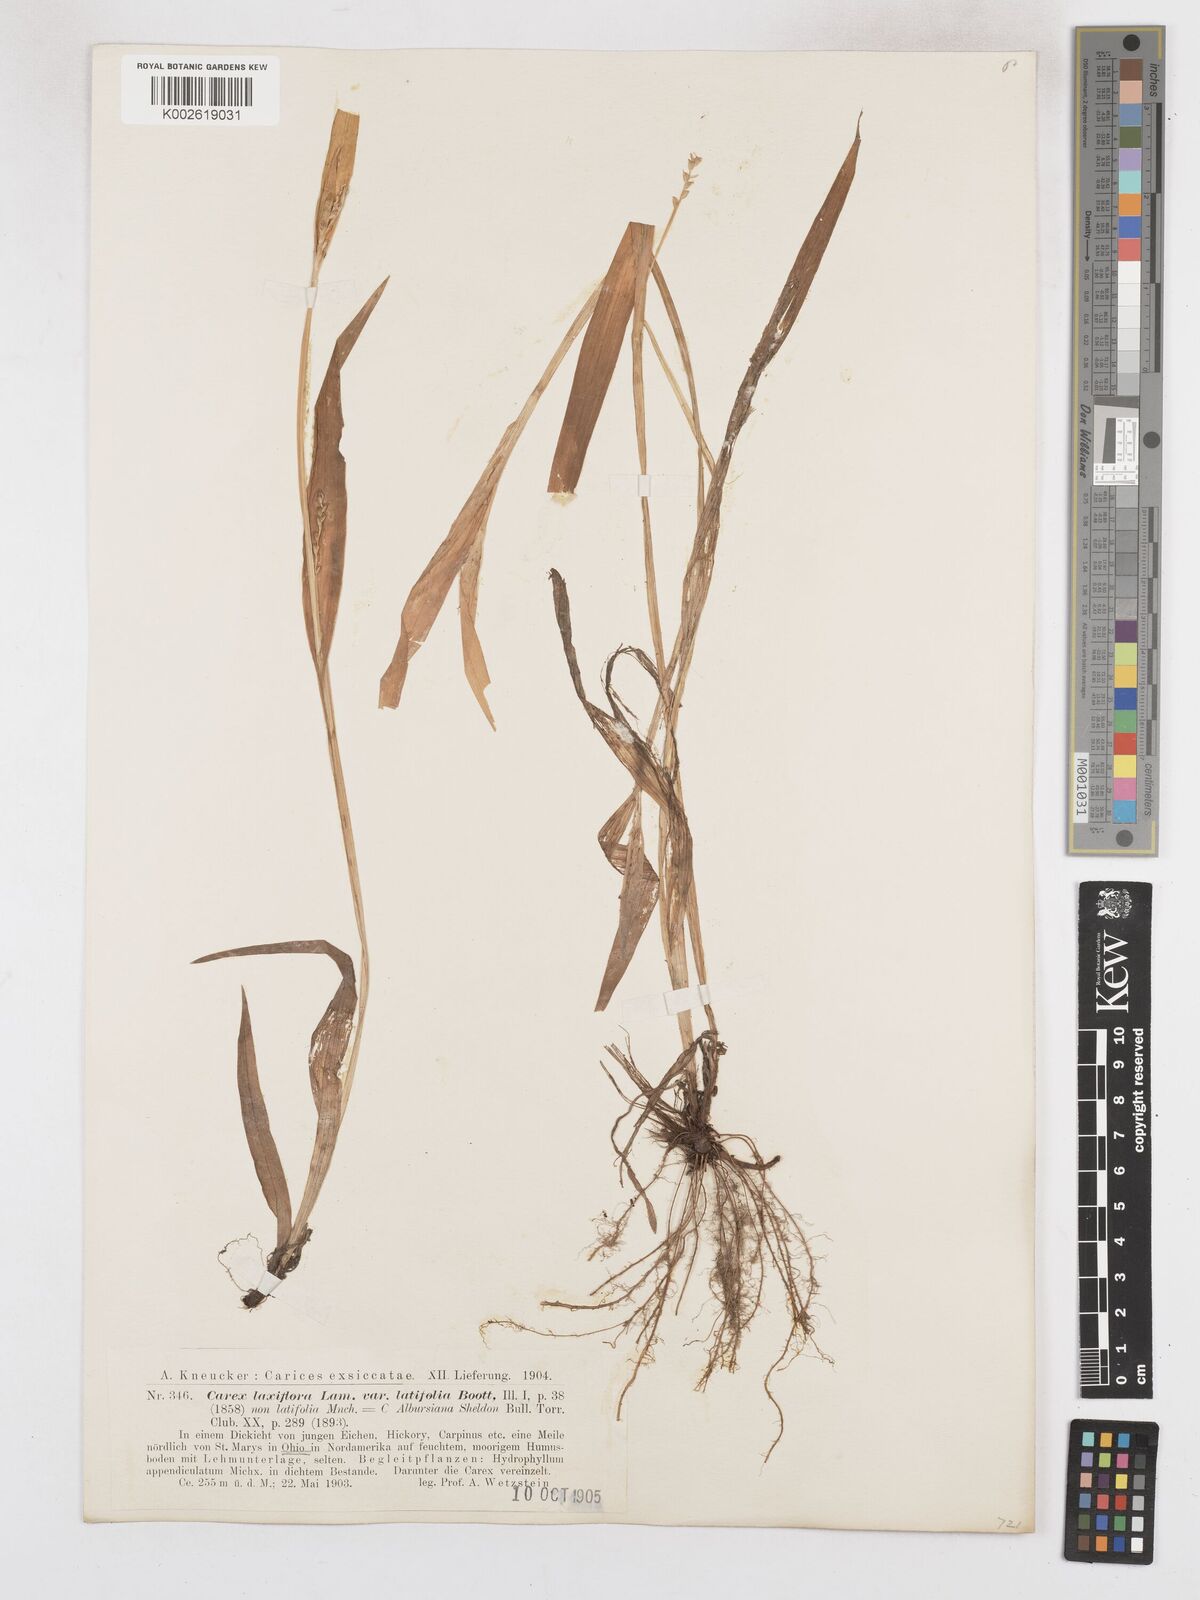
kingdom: Plantae
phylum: Tracheophyta
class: Liliopsida
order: Poales
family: Cyperaceae
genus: Carex
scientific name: Carex albursina
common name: Blunt-scale wood sedge
